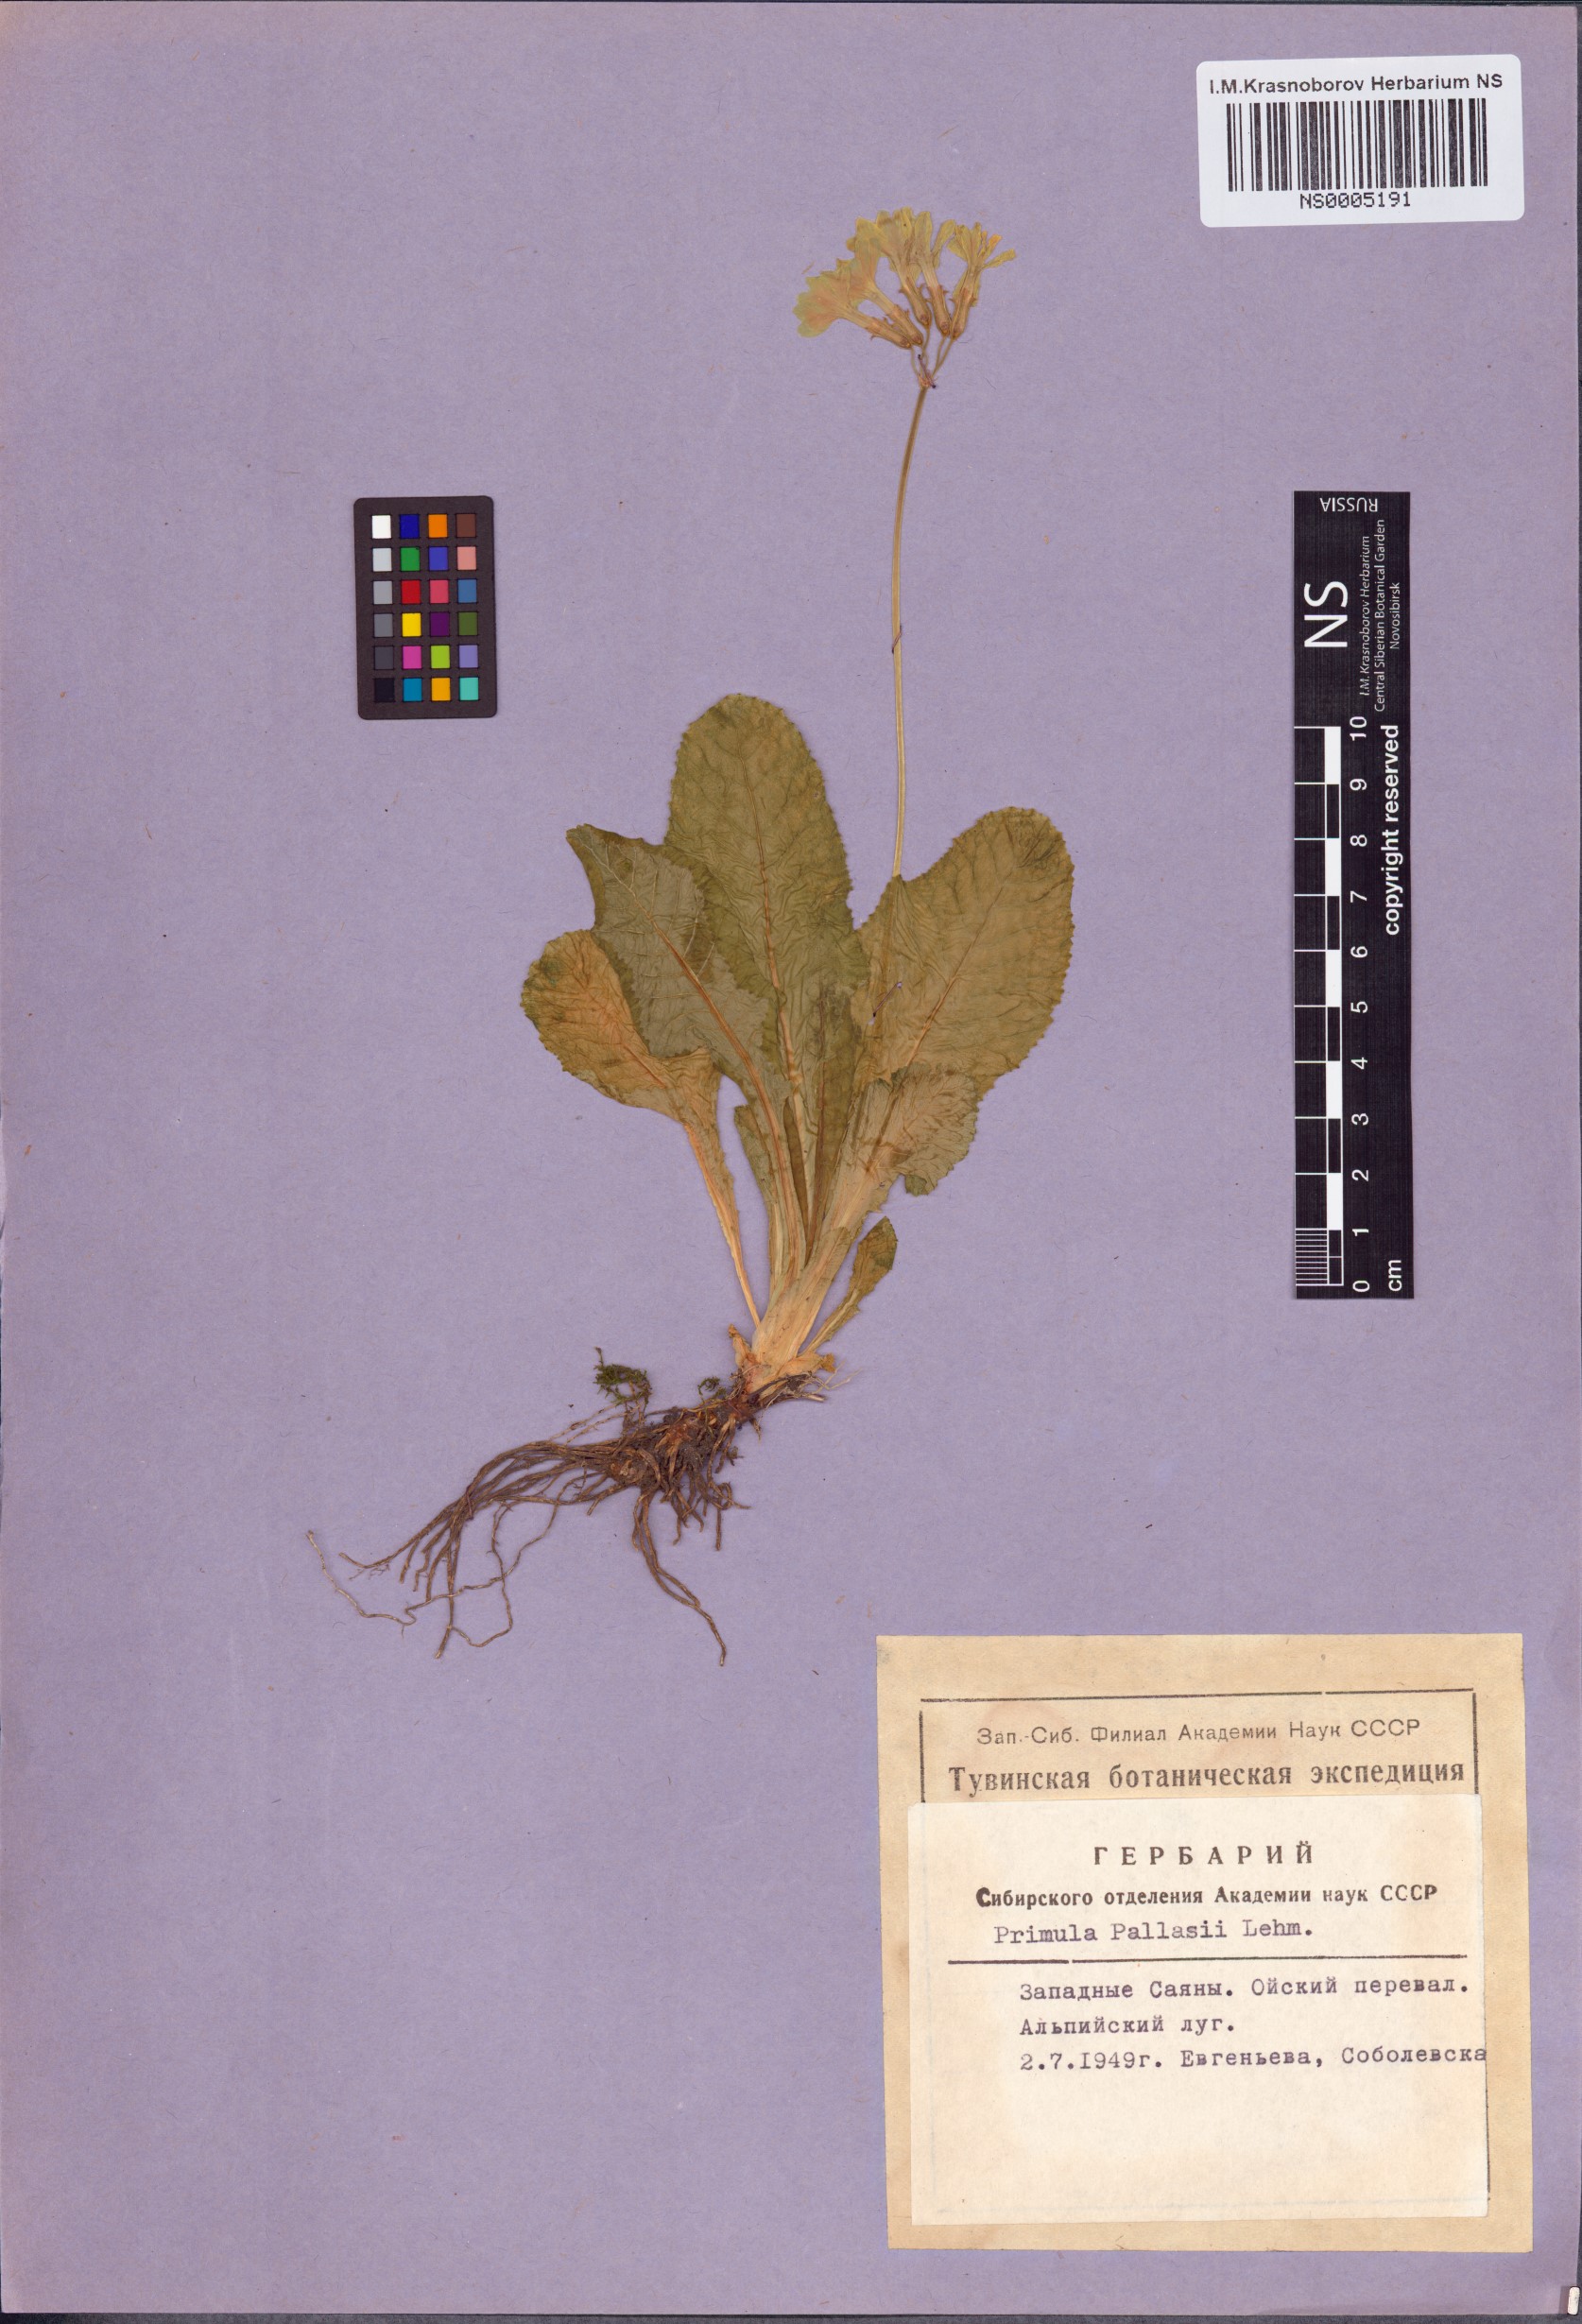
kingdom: Plantae
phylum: Tracheophyta
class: Magnoliopsida
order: Ericales
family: Primulaceae
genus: Primula
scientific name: Primula elatior
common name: Oxlip
